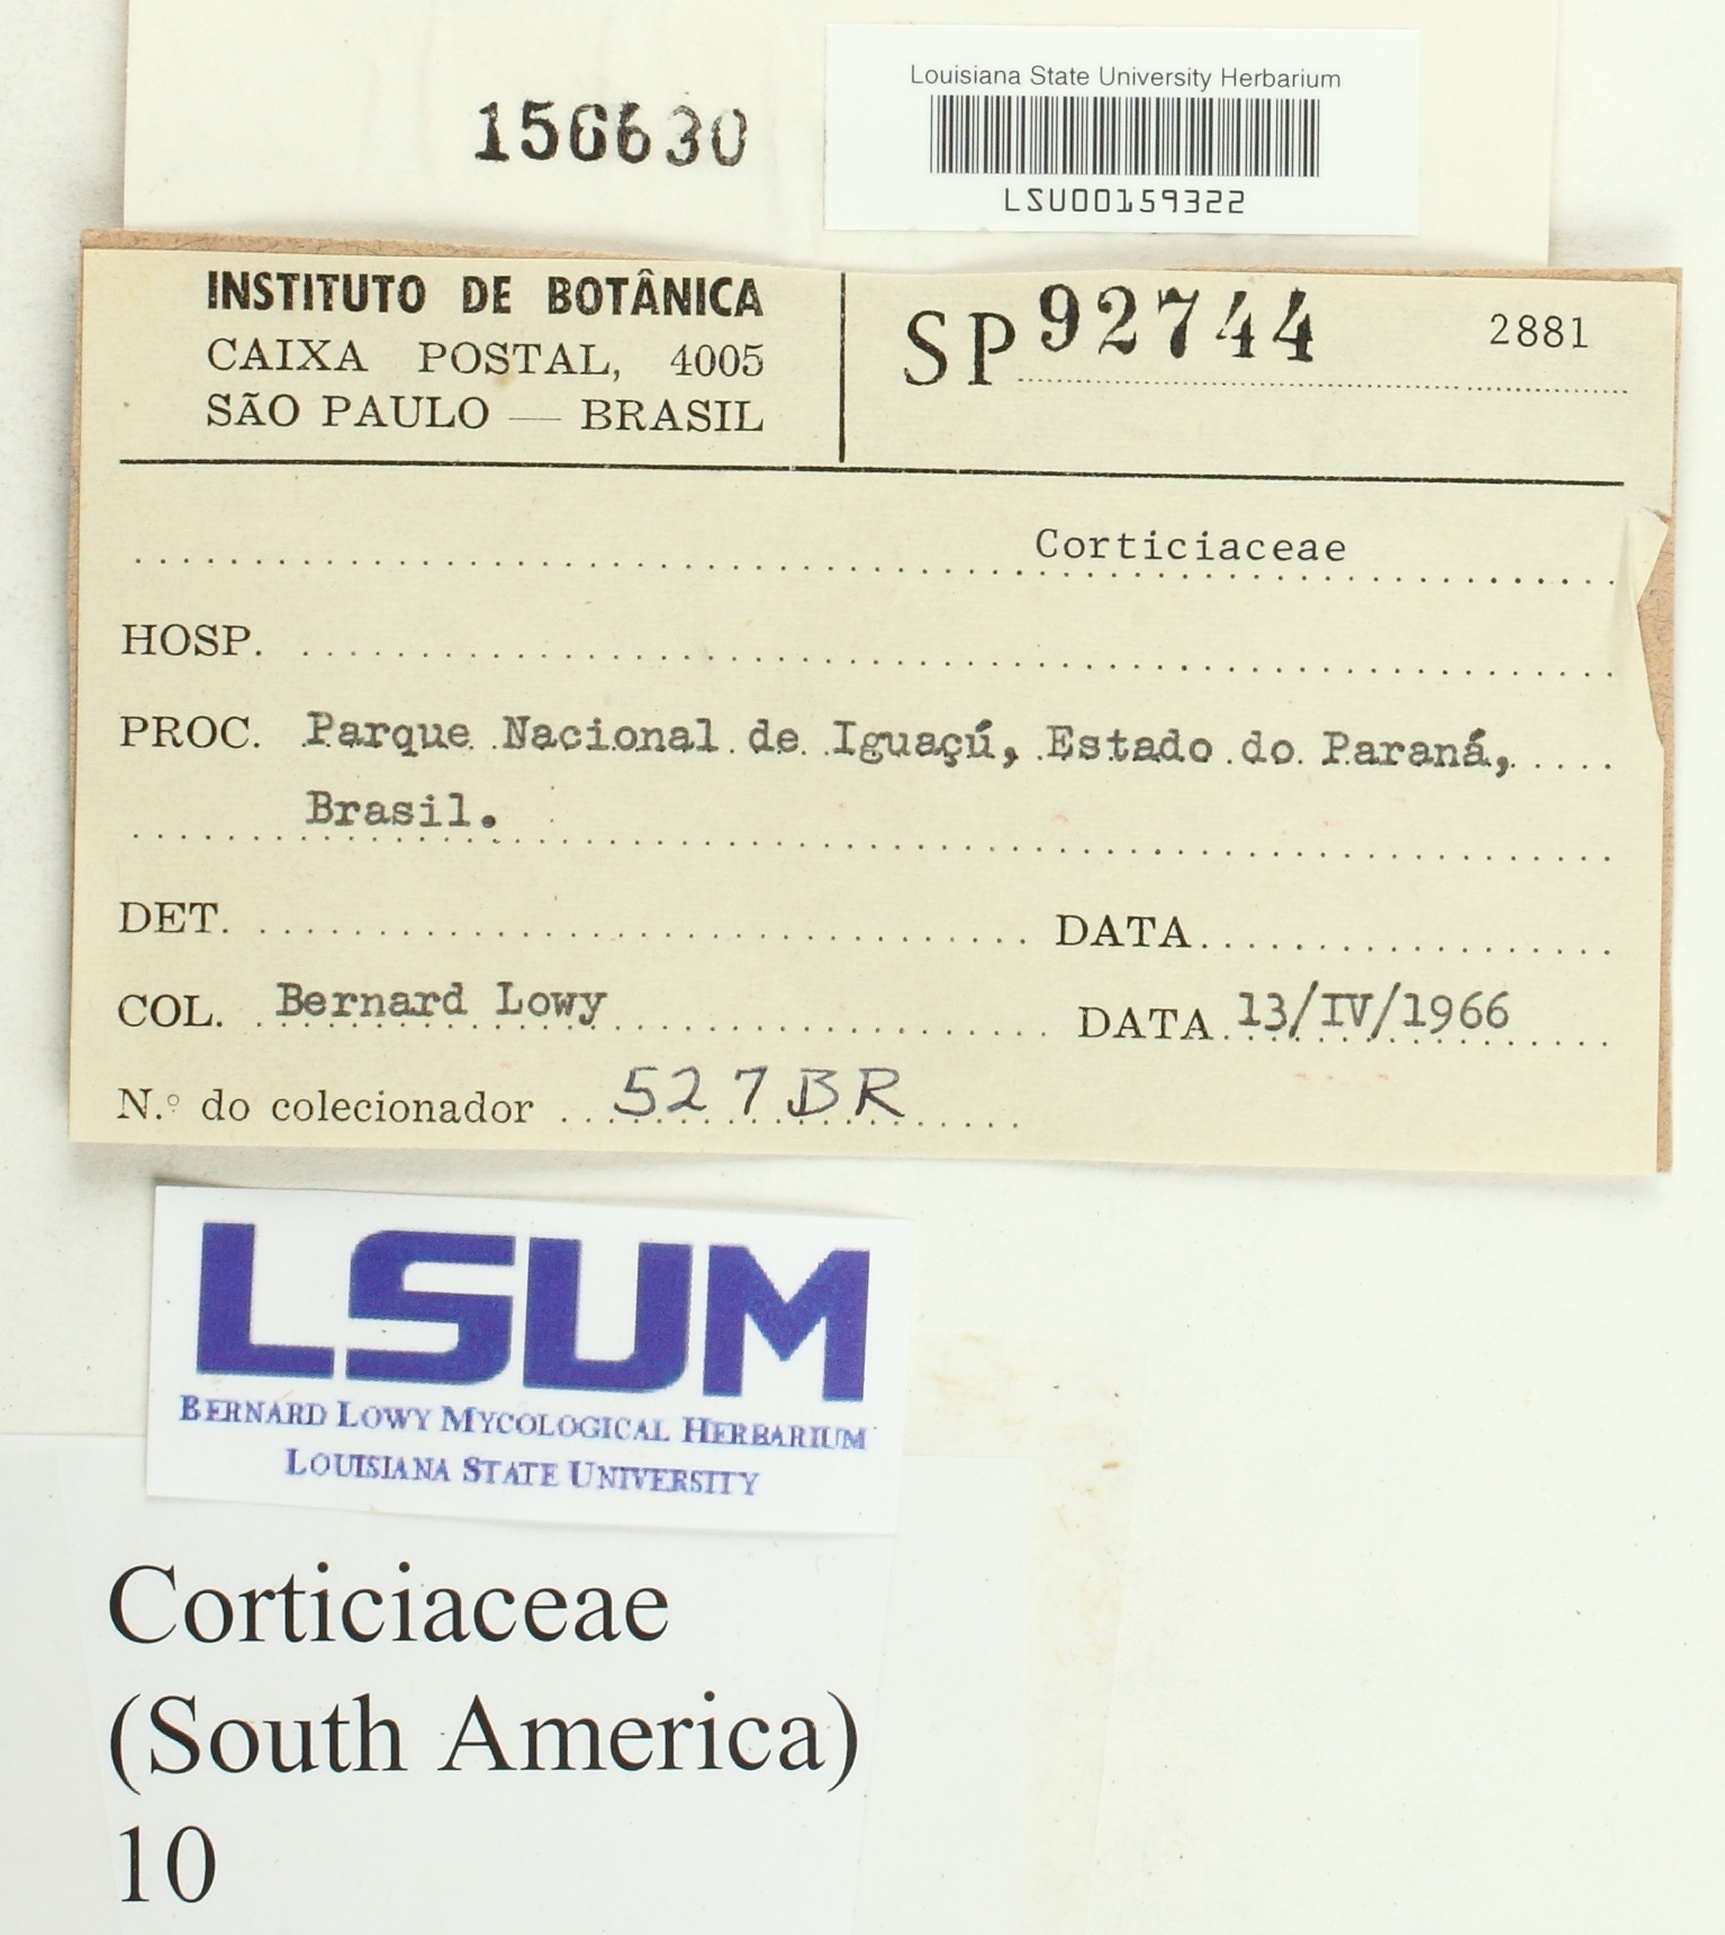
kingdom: Fungi
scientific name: Fungi
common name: Fungi
